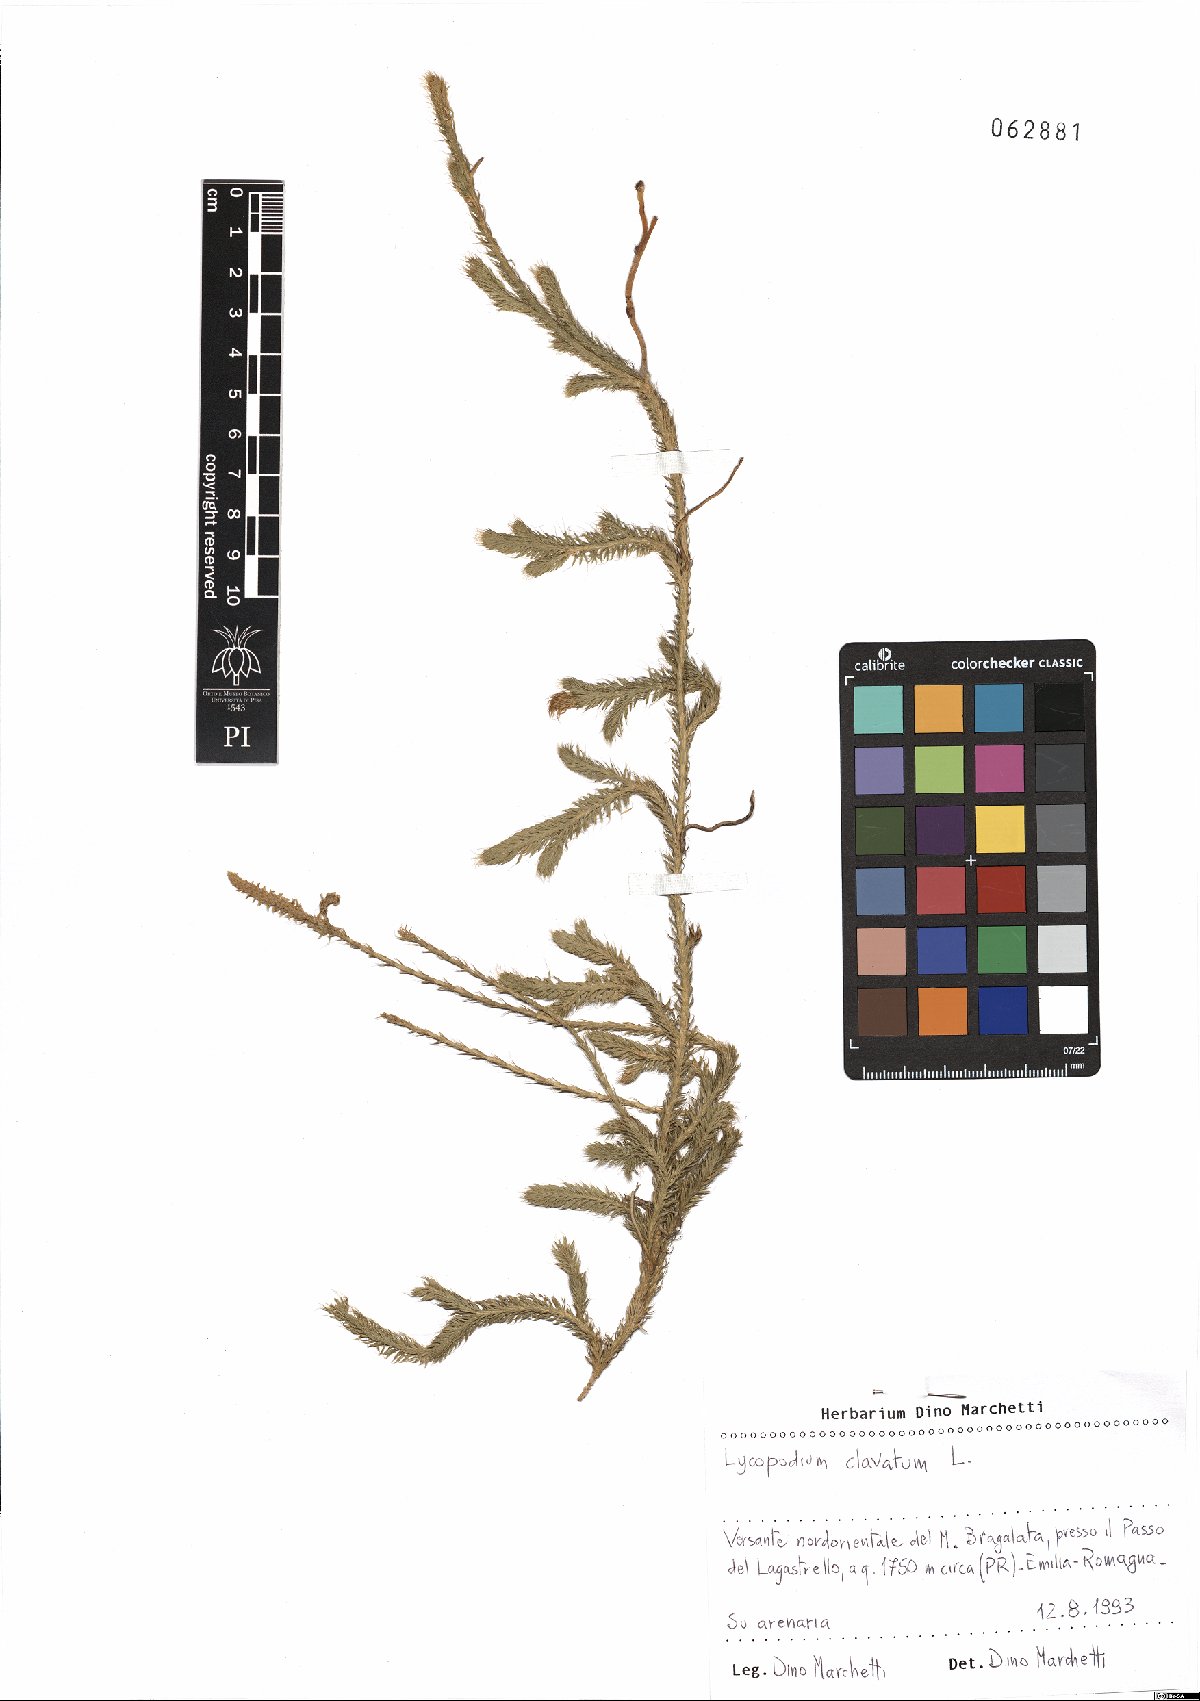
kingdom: Plantae
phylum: Tracheophyta
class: Lycopodiopsida
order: Lycopodiales
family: Lycopodiaceae
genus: Lycopodium
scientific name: Lycopodium clavatum
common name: Stag's-horn clubmoss
